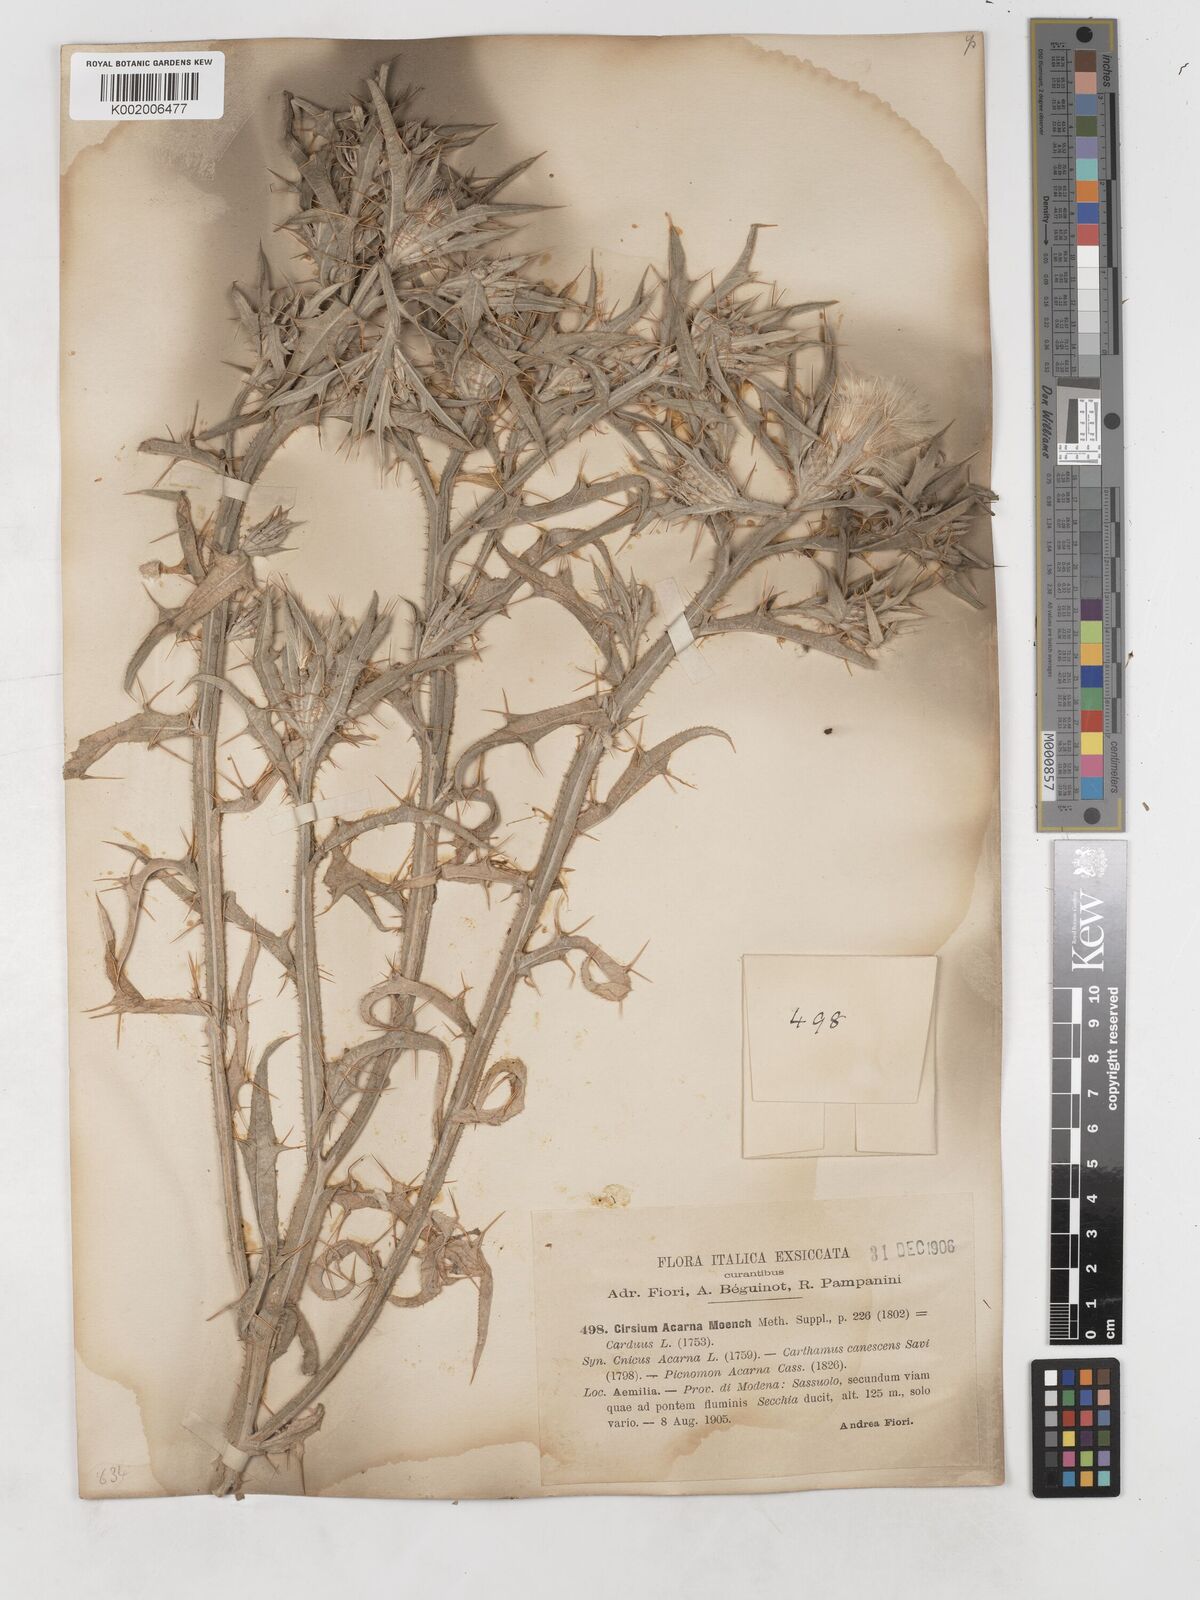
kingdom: Plantae
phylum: Tracheophyta
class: Magnoliopsida
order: Asterales
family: Asteraceae
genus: Picnomon
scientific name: Picnomon acarna
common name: Soldier thistle
